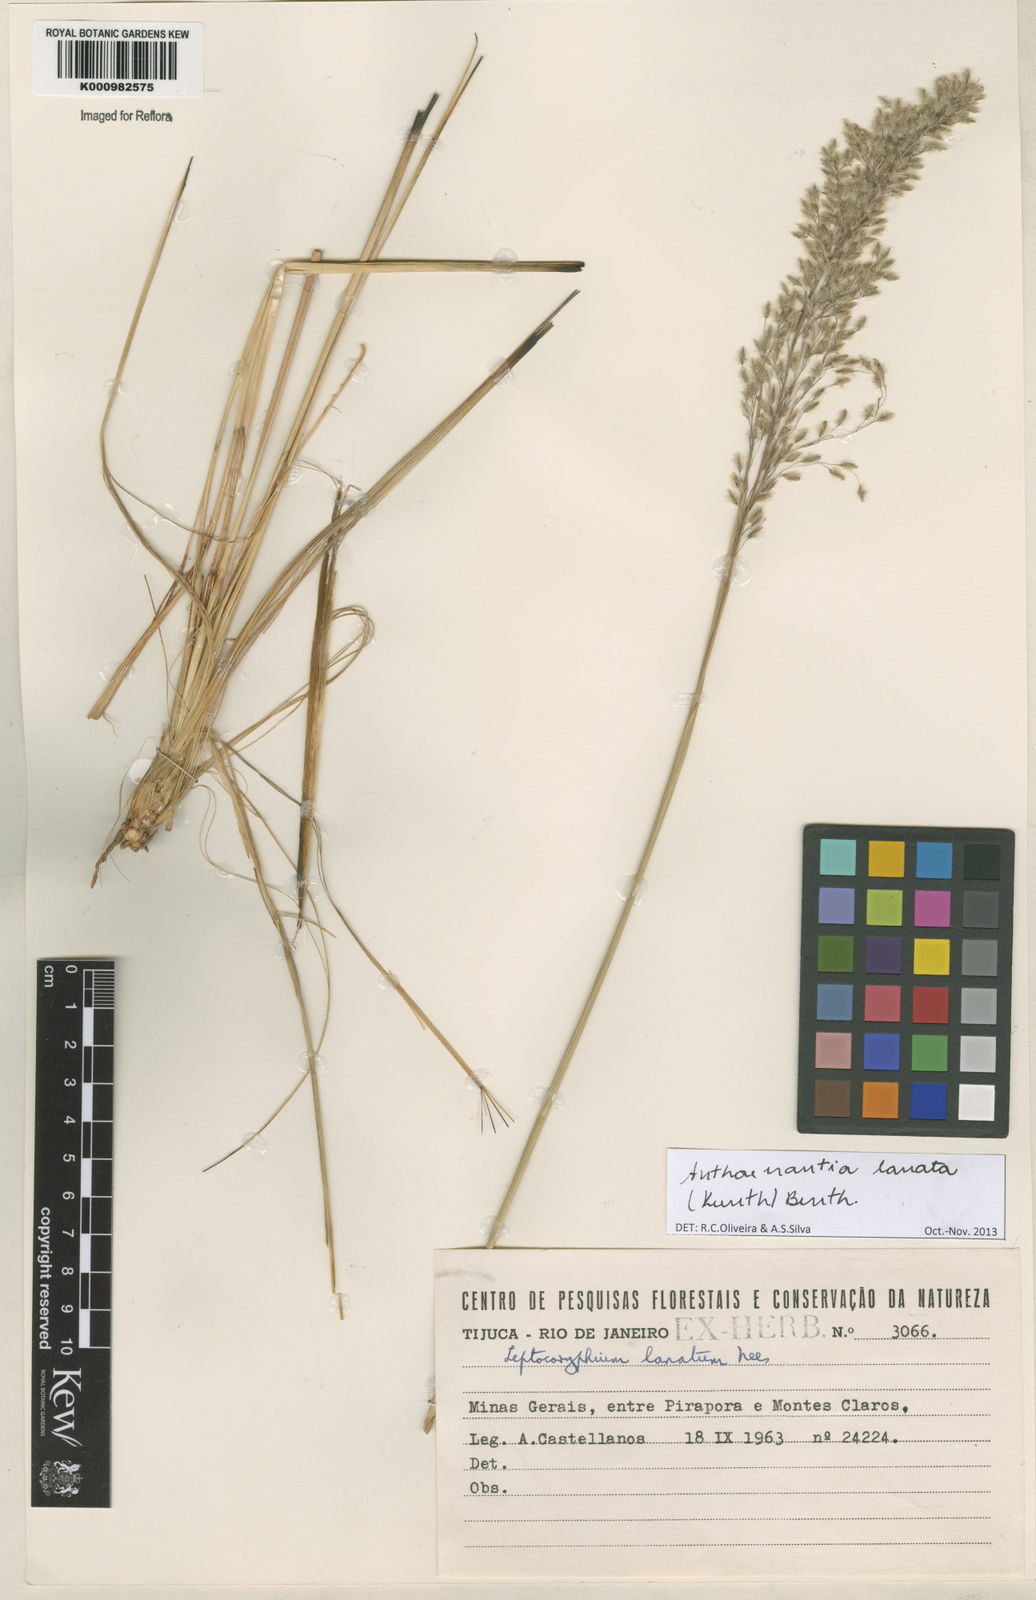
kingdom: Plantae
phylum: Tracheophyta
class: Liliopsida
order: Poales
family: Poaceae
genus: Anthenantia
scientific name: Anthenantia lanata
